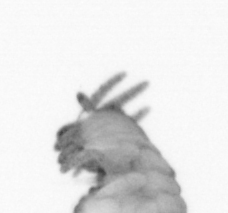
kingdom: Animalia
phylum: Annelida
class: Polychaeta
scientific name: Polychaeta
